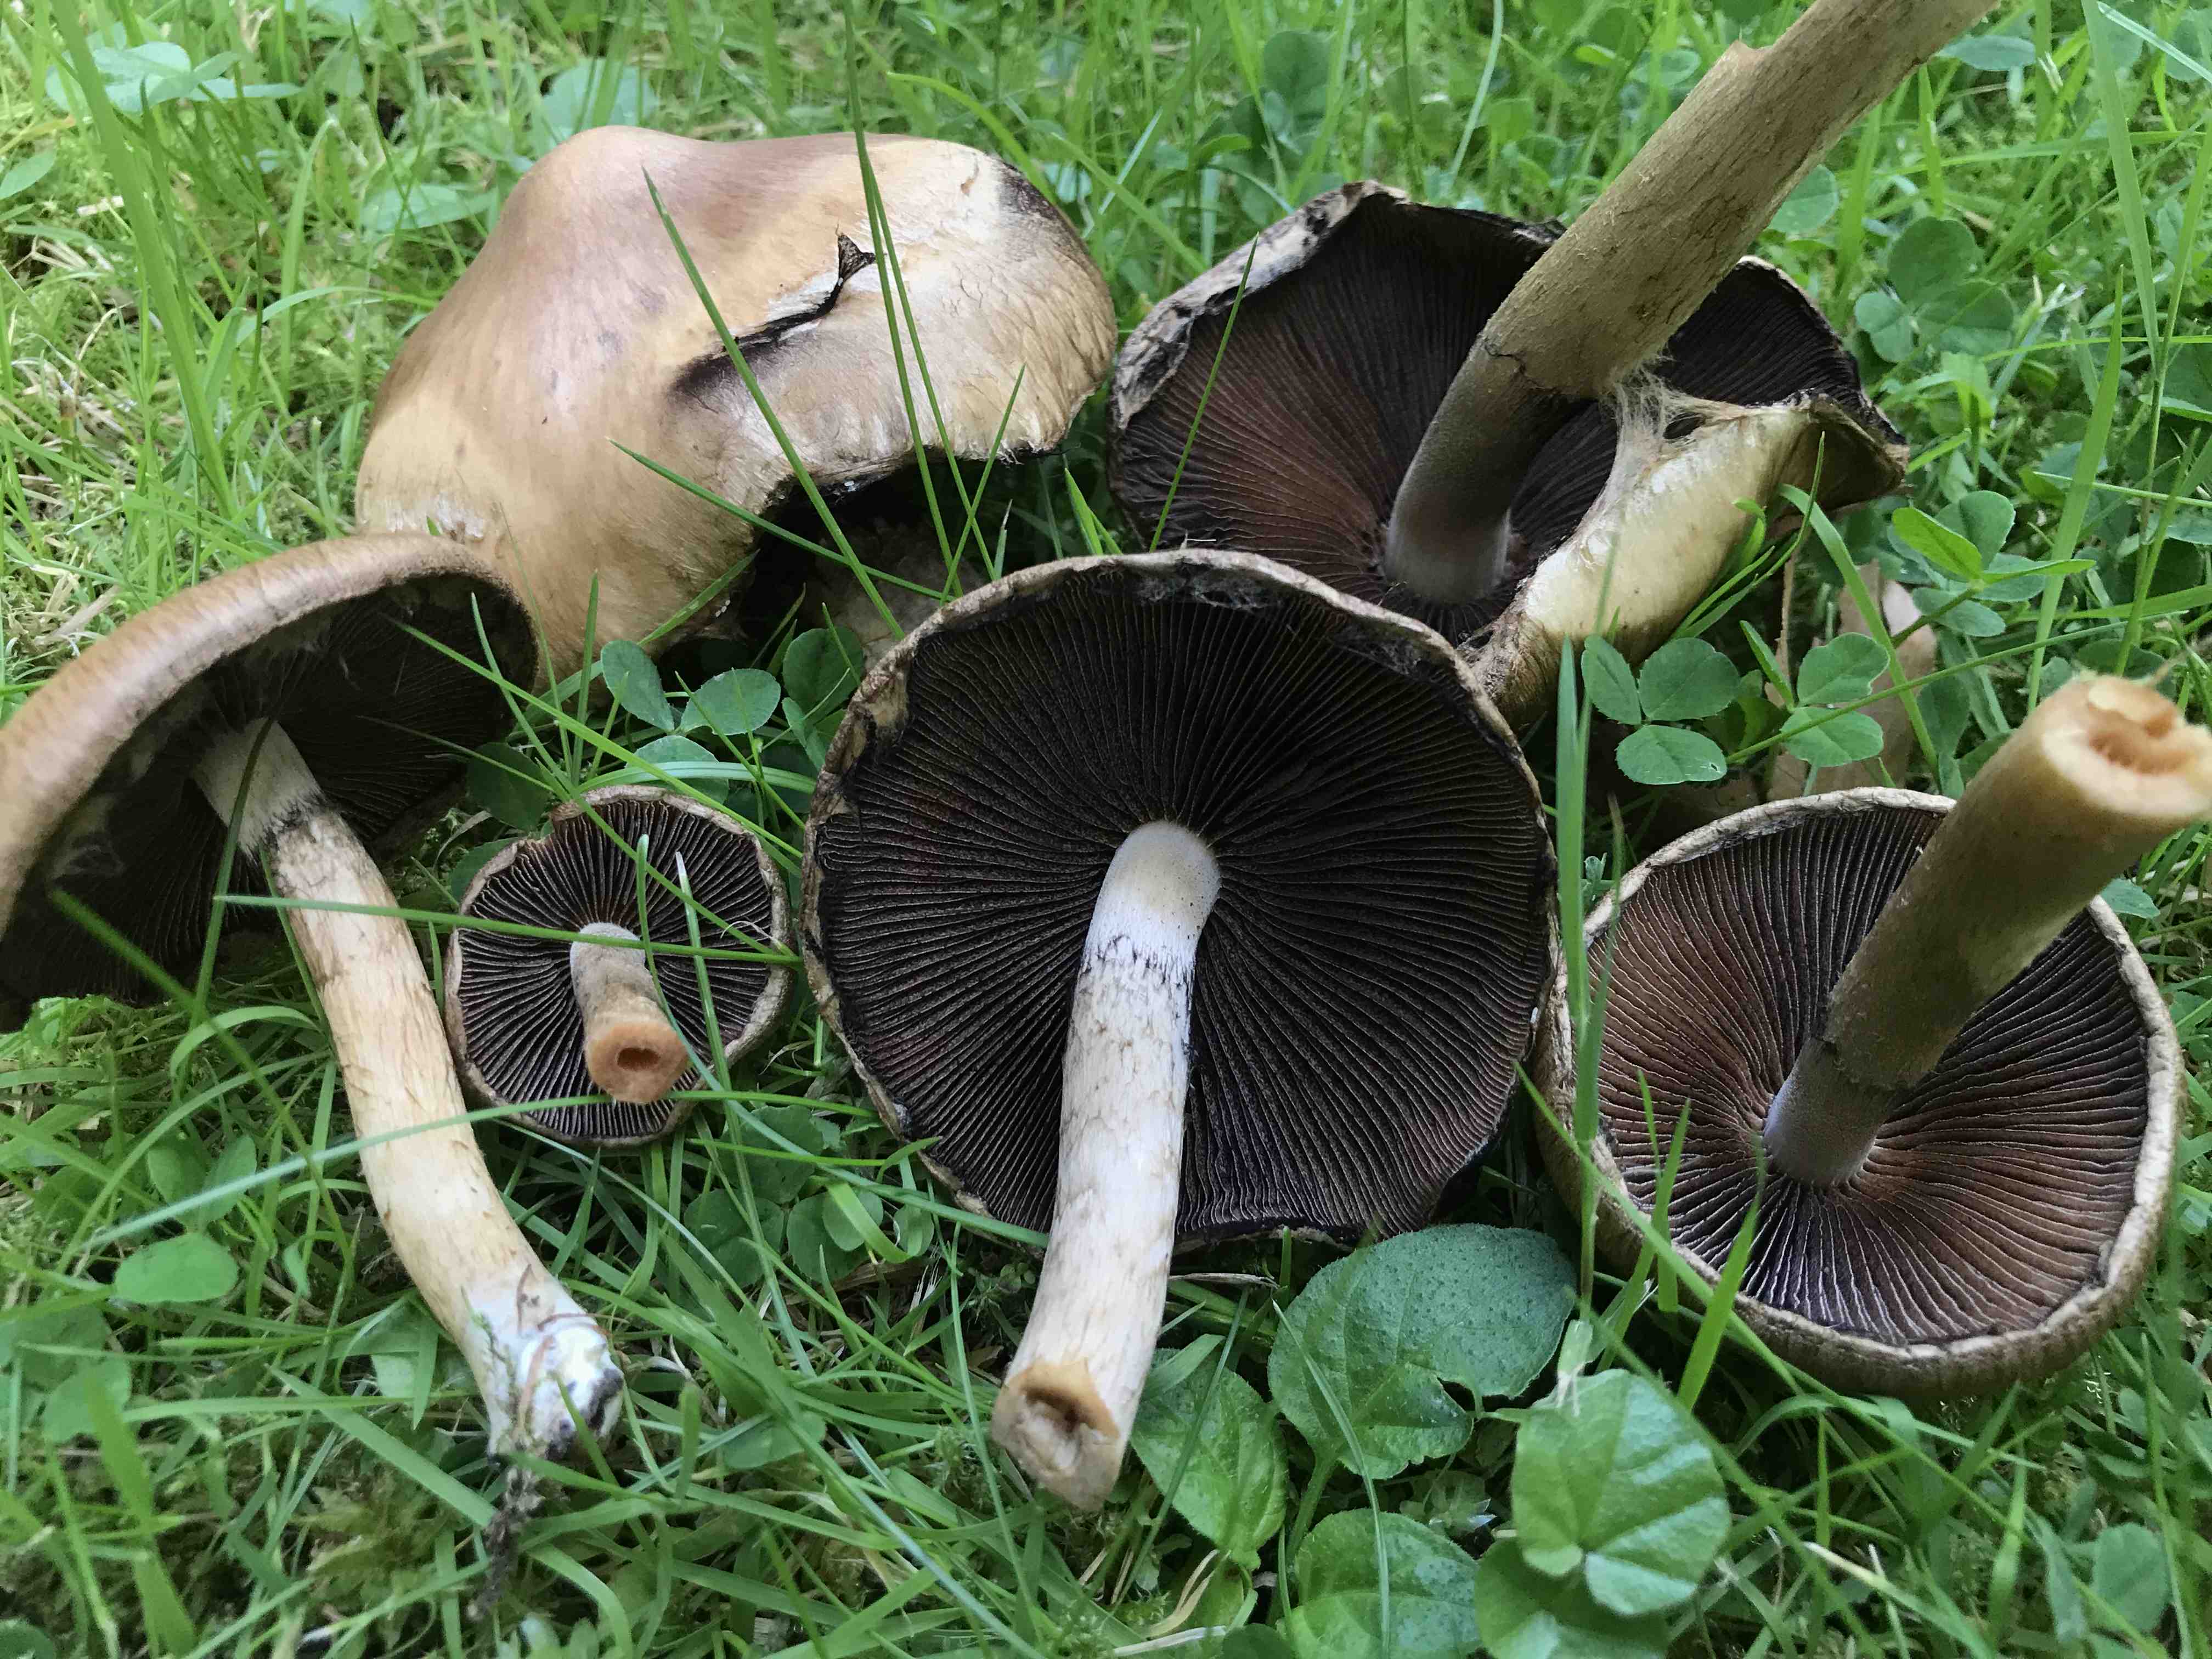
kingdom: Fungi
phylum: Basidiomycota
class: Agaricomycetes
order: Agaricales
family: Psathyrellaceae
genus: Lacrymaria
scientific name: Lacrymaria lacrymabunda
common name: grædende mørkhat
